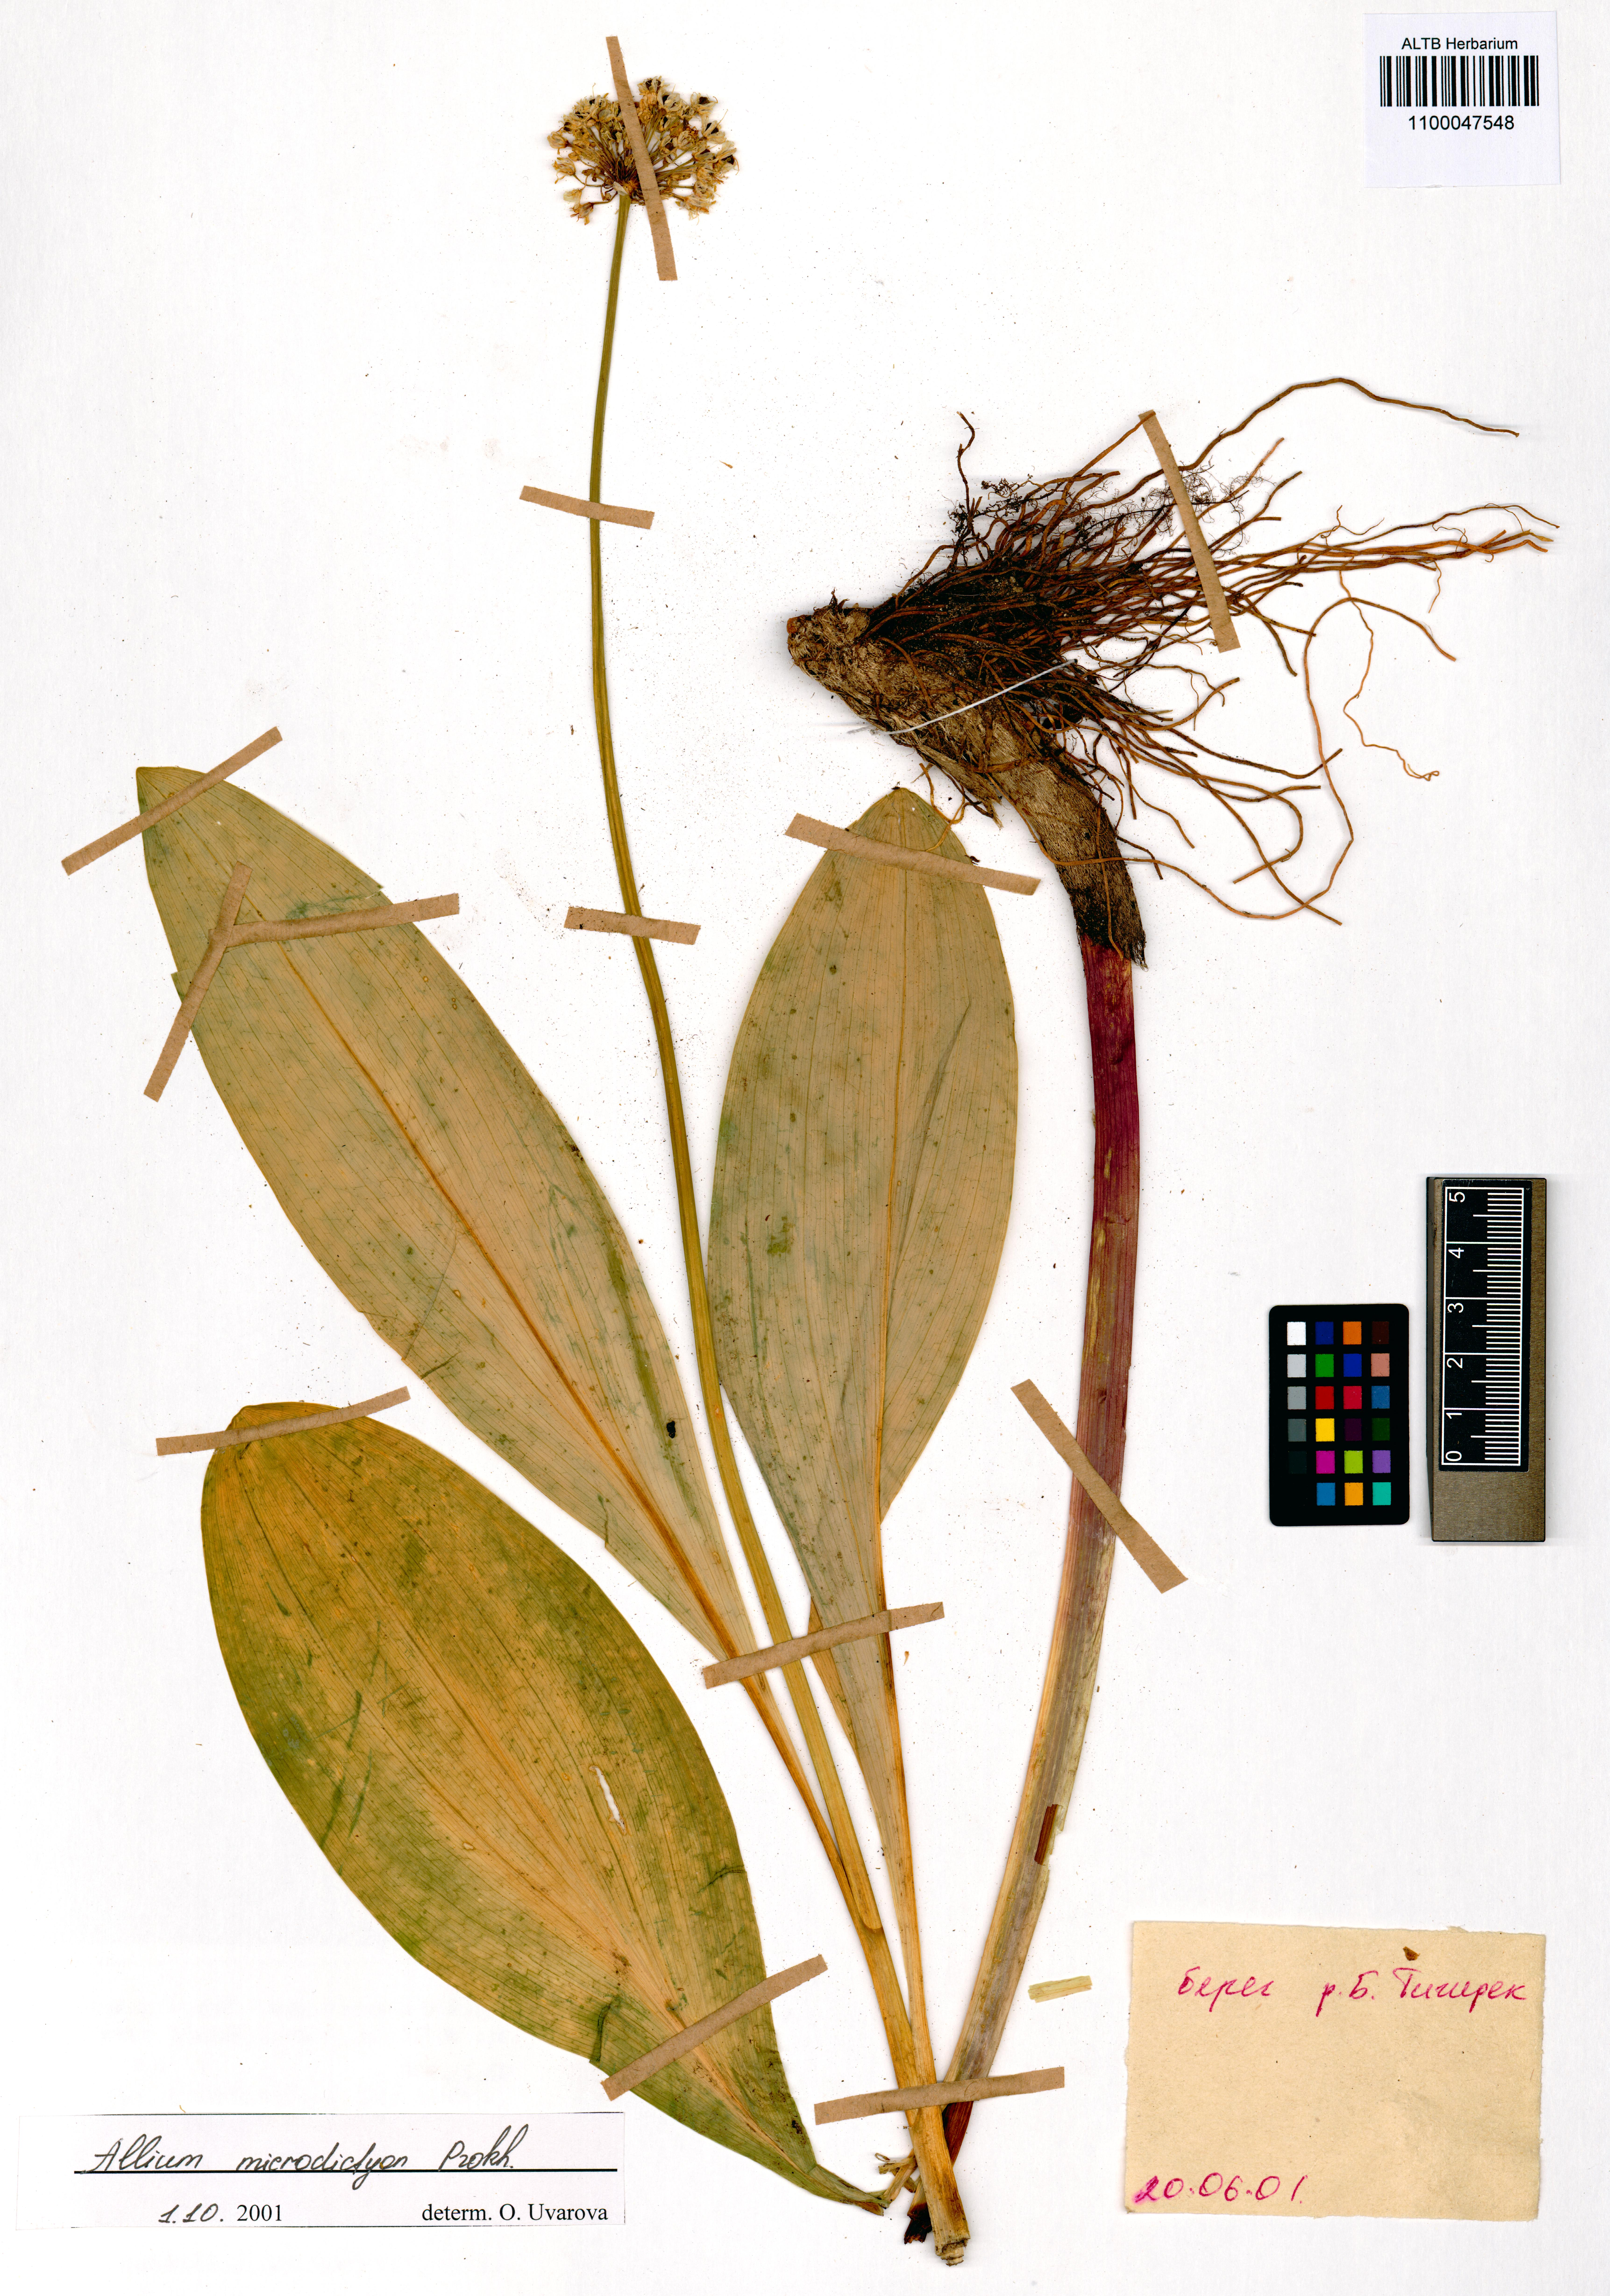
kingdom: Plantae
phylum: Tracheophyta
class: Liliopsida
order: Asparagales
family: Amaryllidaceae
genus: Allium
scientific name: Allium microdictyon
